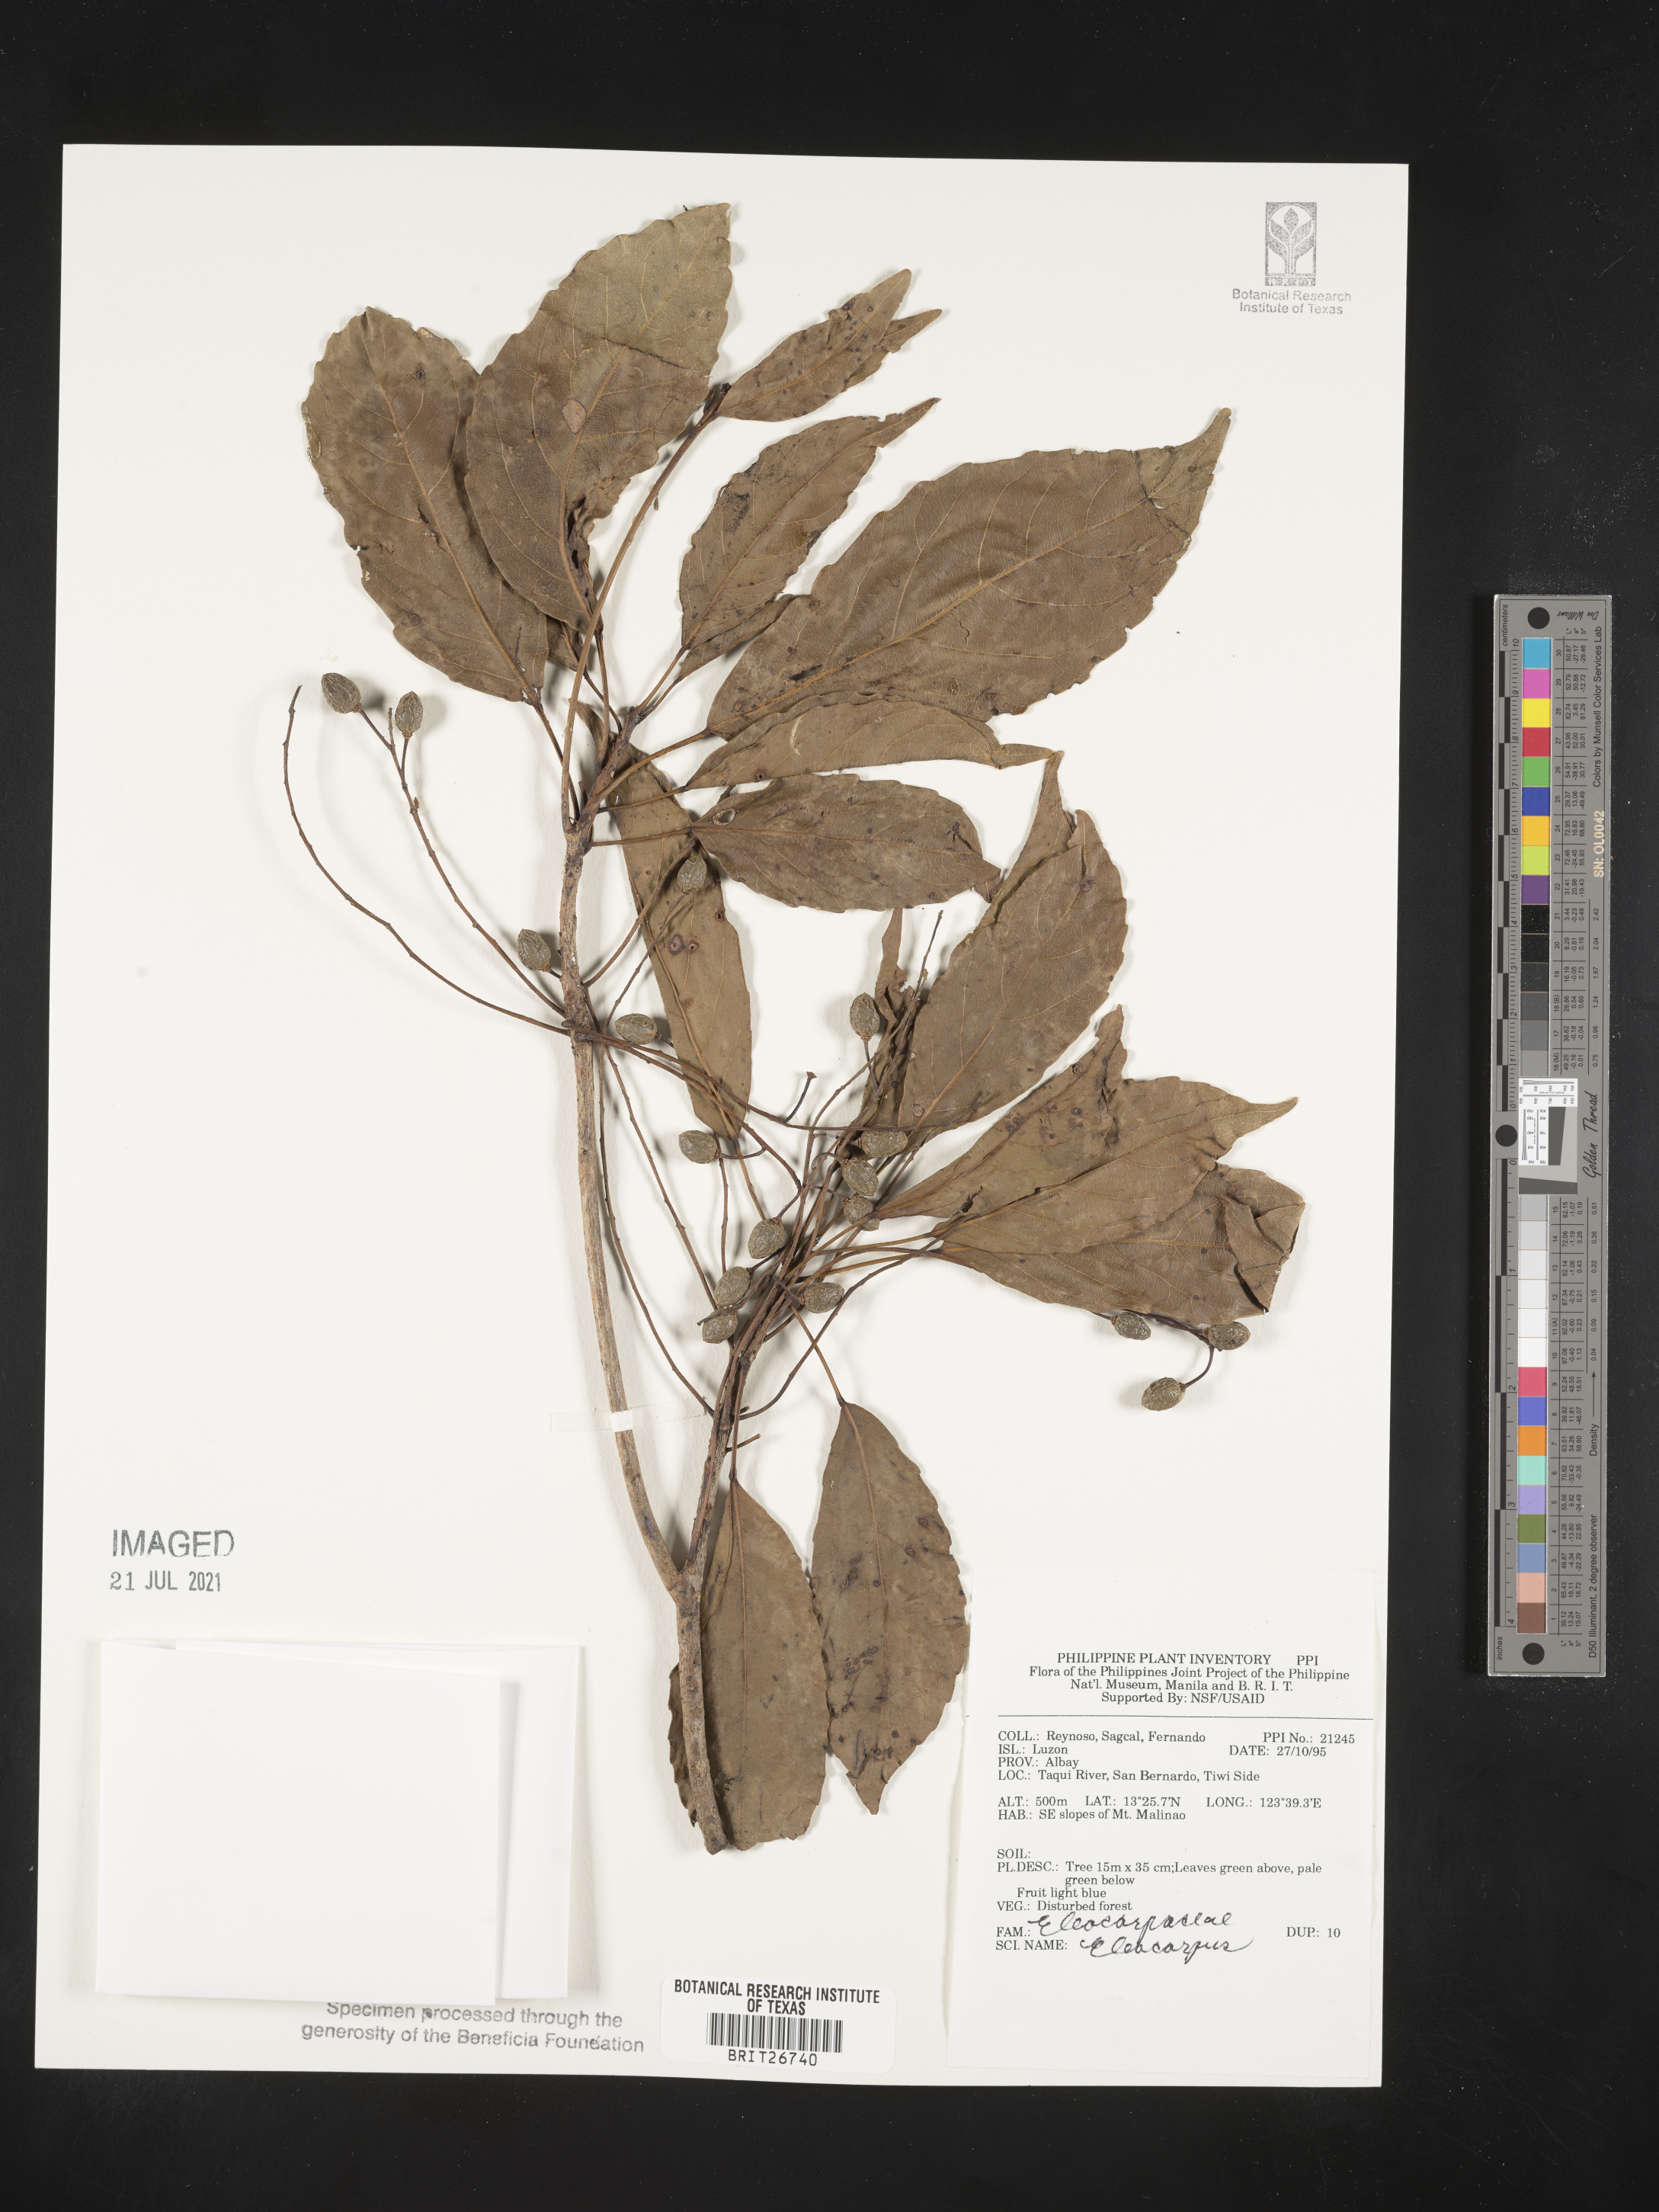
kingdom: Plantae
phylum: Tracheophyta
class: Magnoliopsida
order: Oxalidales
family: Elaeocarpaceae
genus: Elaeocarpus
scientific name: Elaeocarpus
